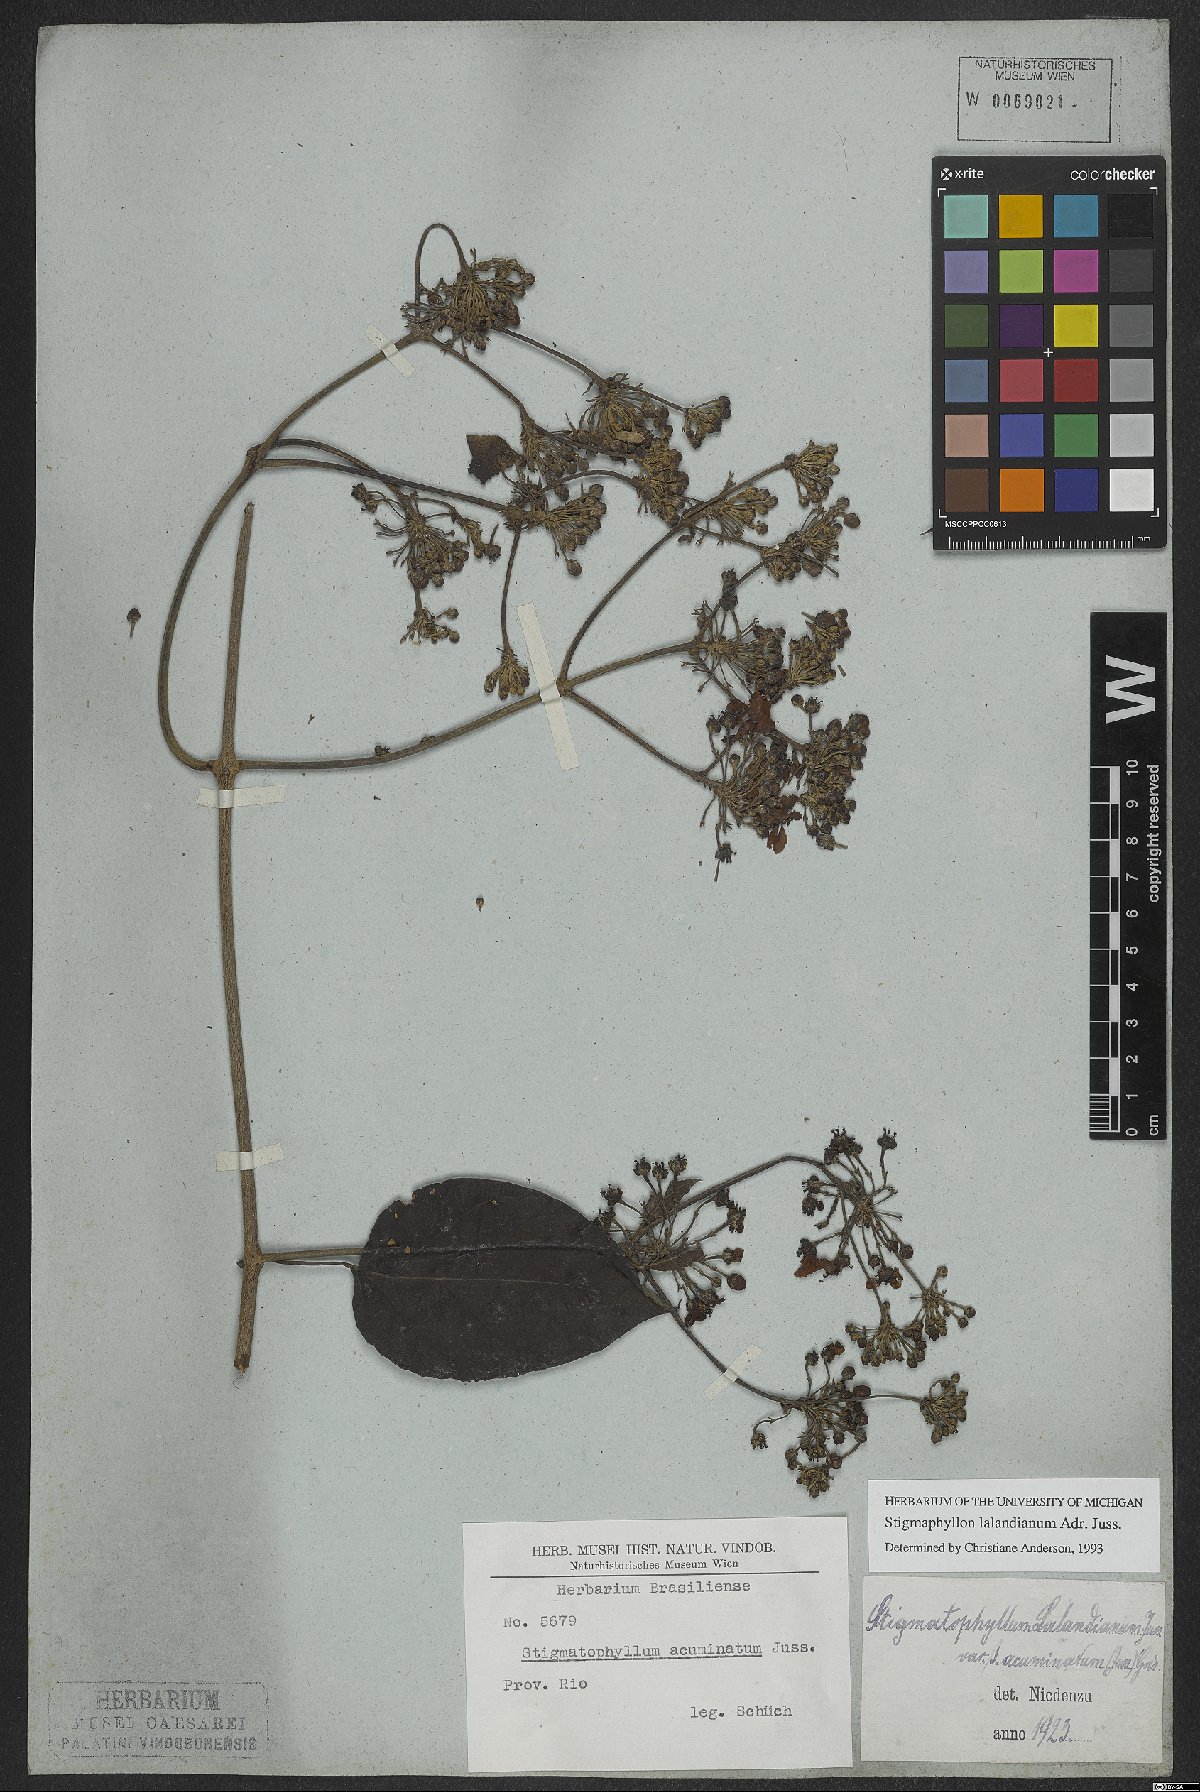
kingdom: Plantae
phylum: Tracheophyta
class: Magnoliopsida
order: Malpighiales
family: Malpighiaceae
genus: Stigmaphyllon
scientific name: Stigmaphyllon lalandianum
